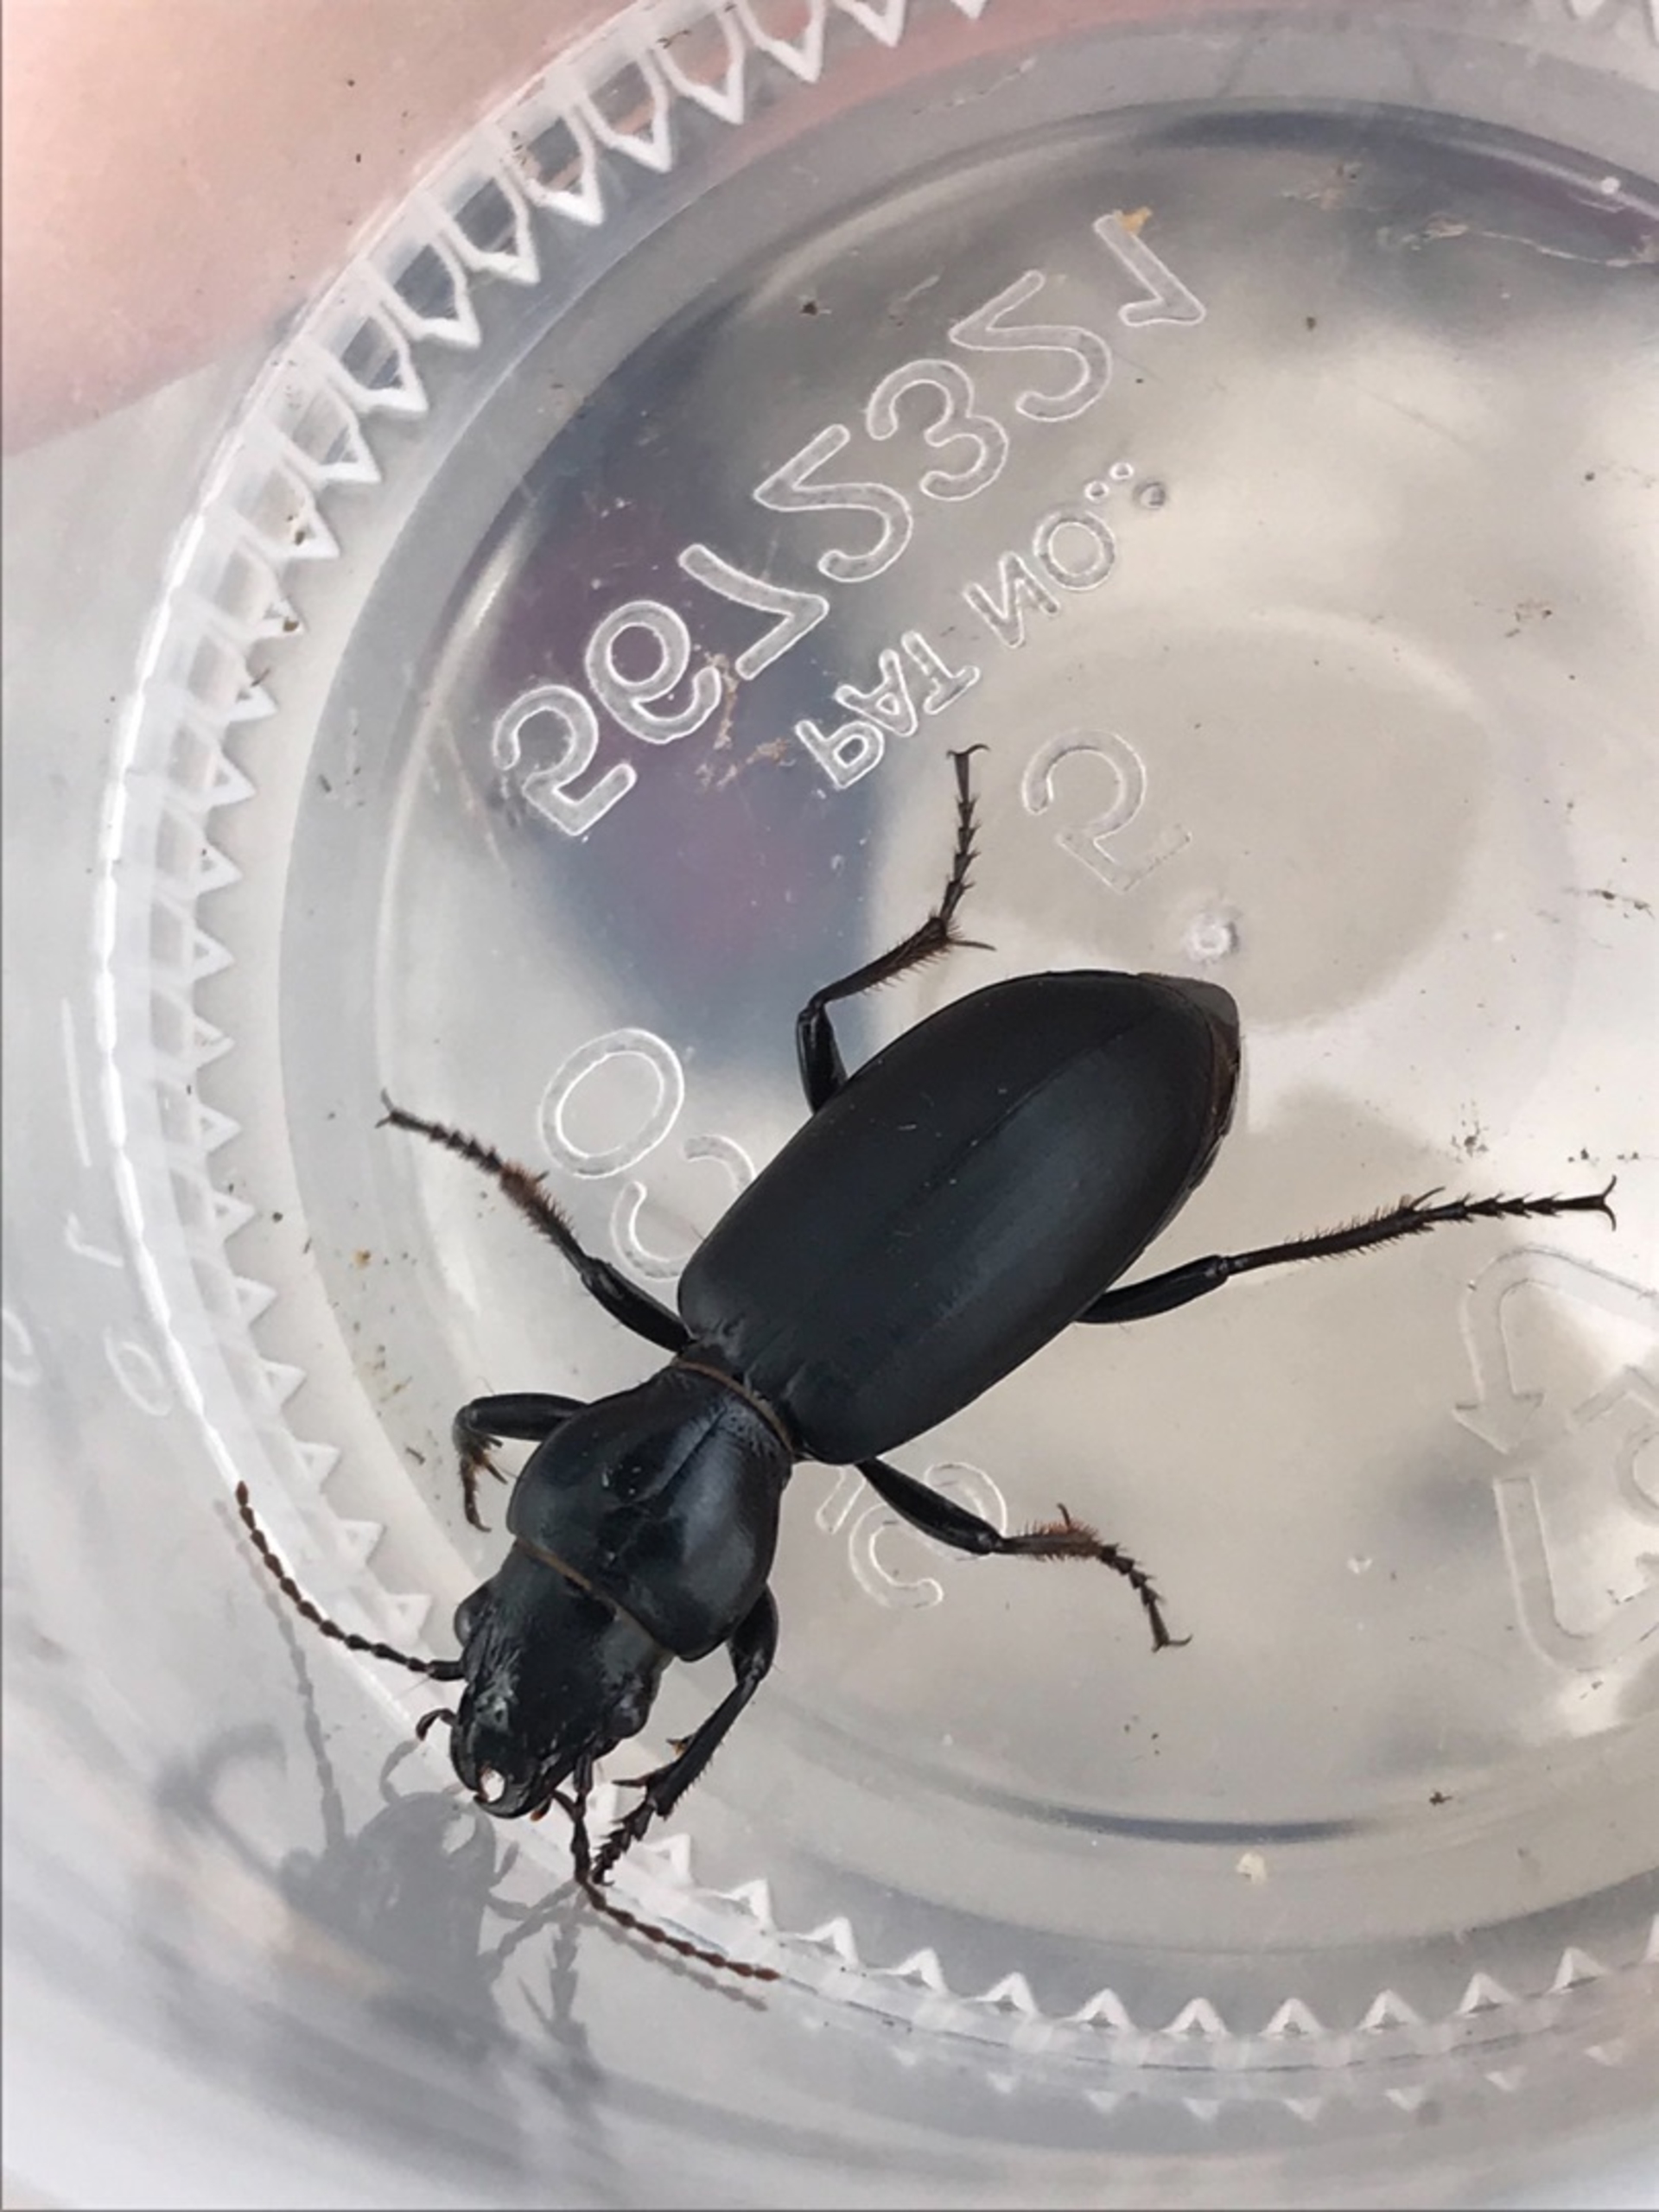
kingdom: Animalia
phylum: Arthropoda
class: Insecta
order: Coleoptera
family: Carabidae
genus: Broscus
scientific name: Broscus cephalotes
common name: Sandgraver
